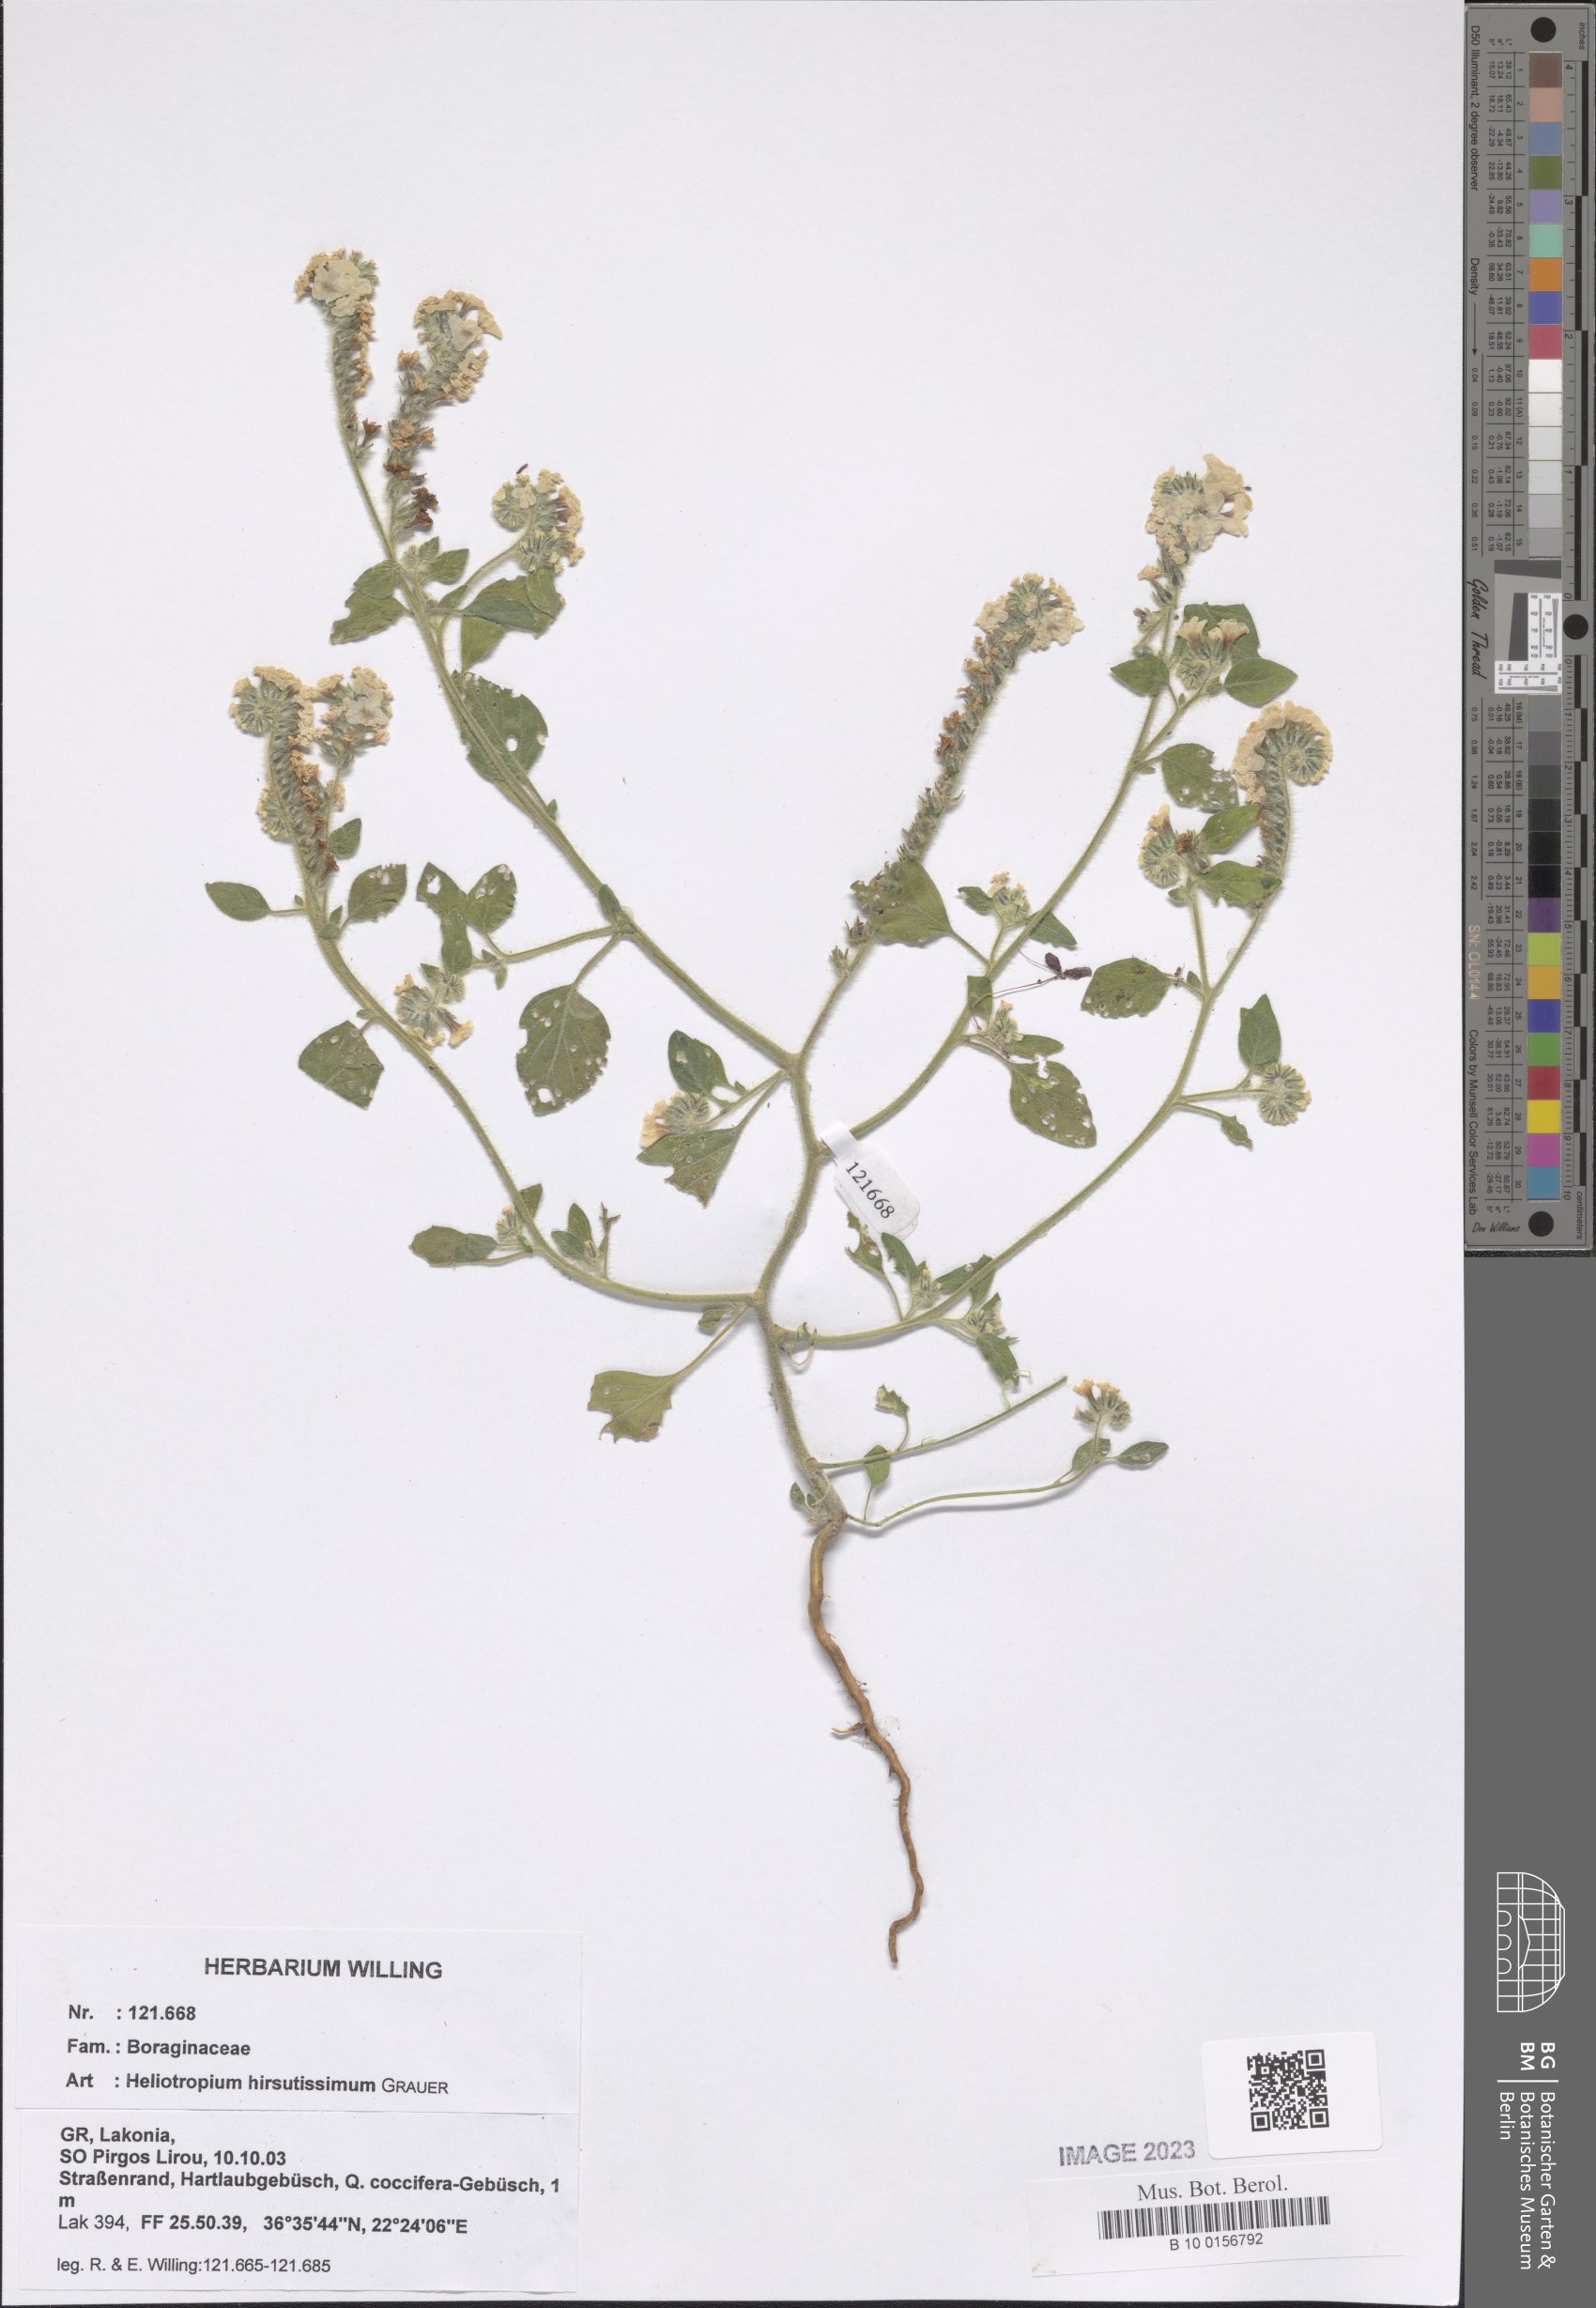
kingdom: Plantae
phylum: Tracheophyta
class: Magnoliopsida
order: Boraginales
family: Heliotropiaceae
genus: Heliotropium
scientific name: Heliotropium hirsutissimum
